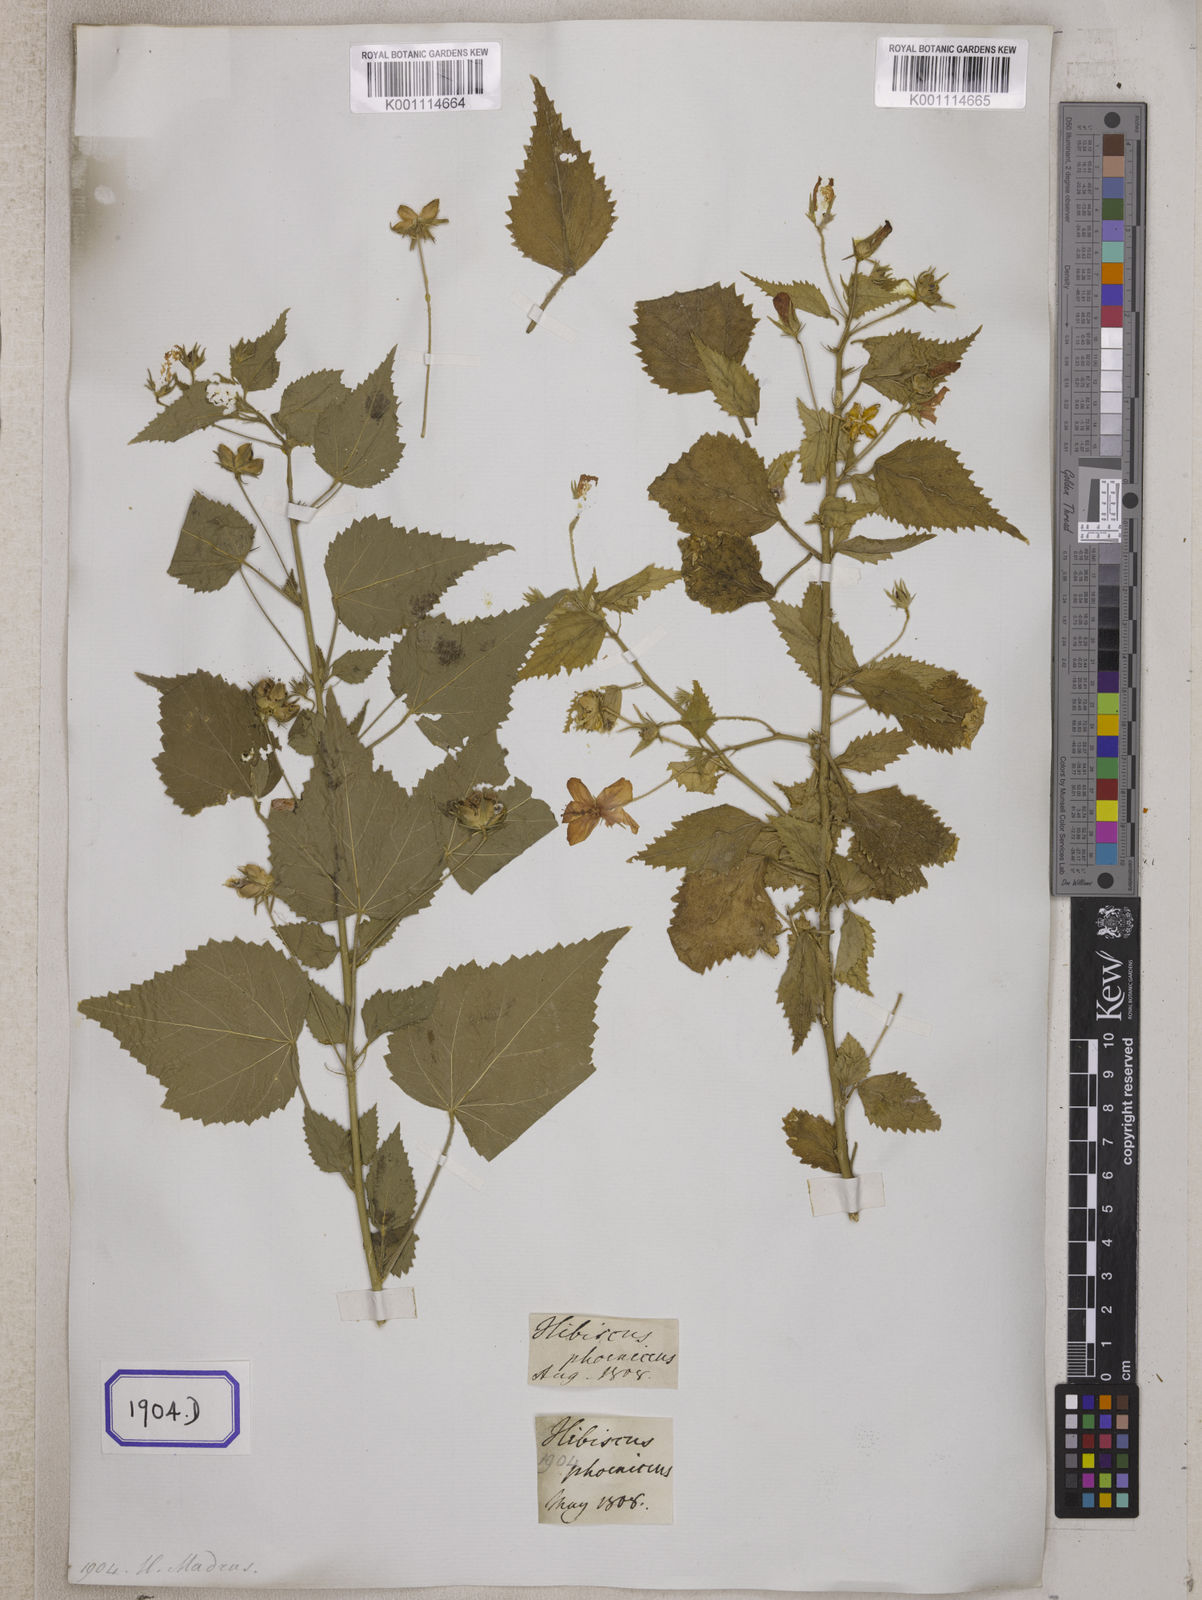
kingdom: Plantae
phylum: Tracheophyta
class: Magnoliopsida
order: Malvales
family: Malvaceae
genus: Hibiscus
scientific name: Hibiscus phoeniceus
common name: Brazilian rosemallow
